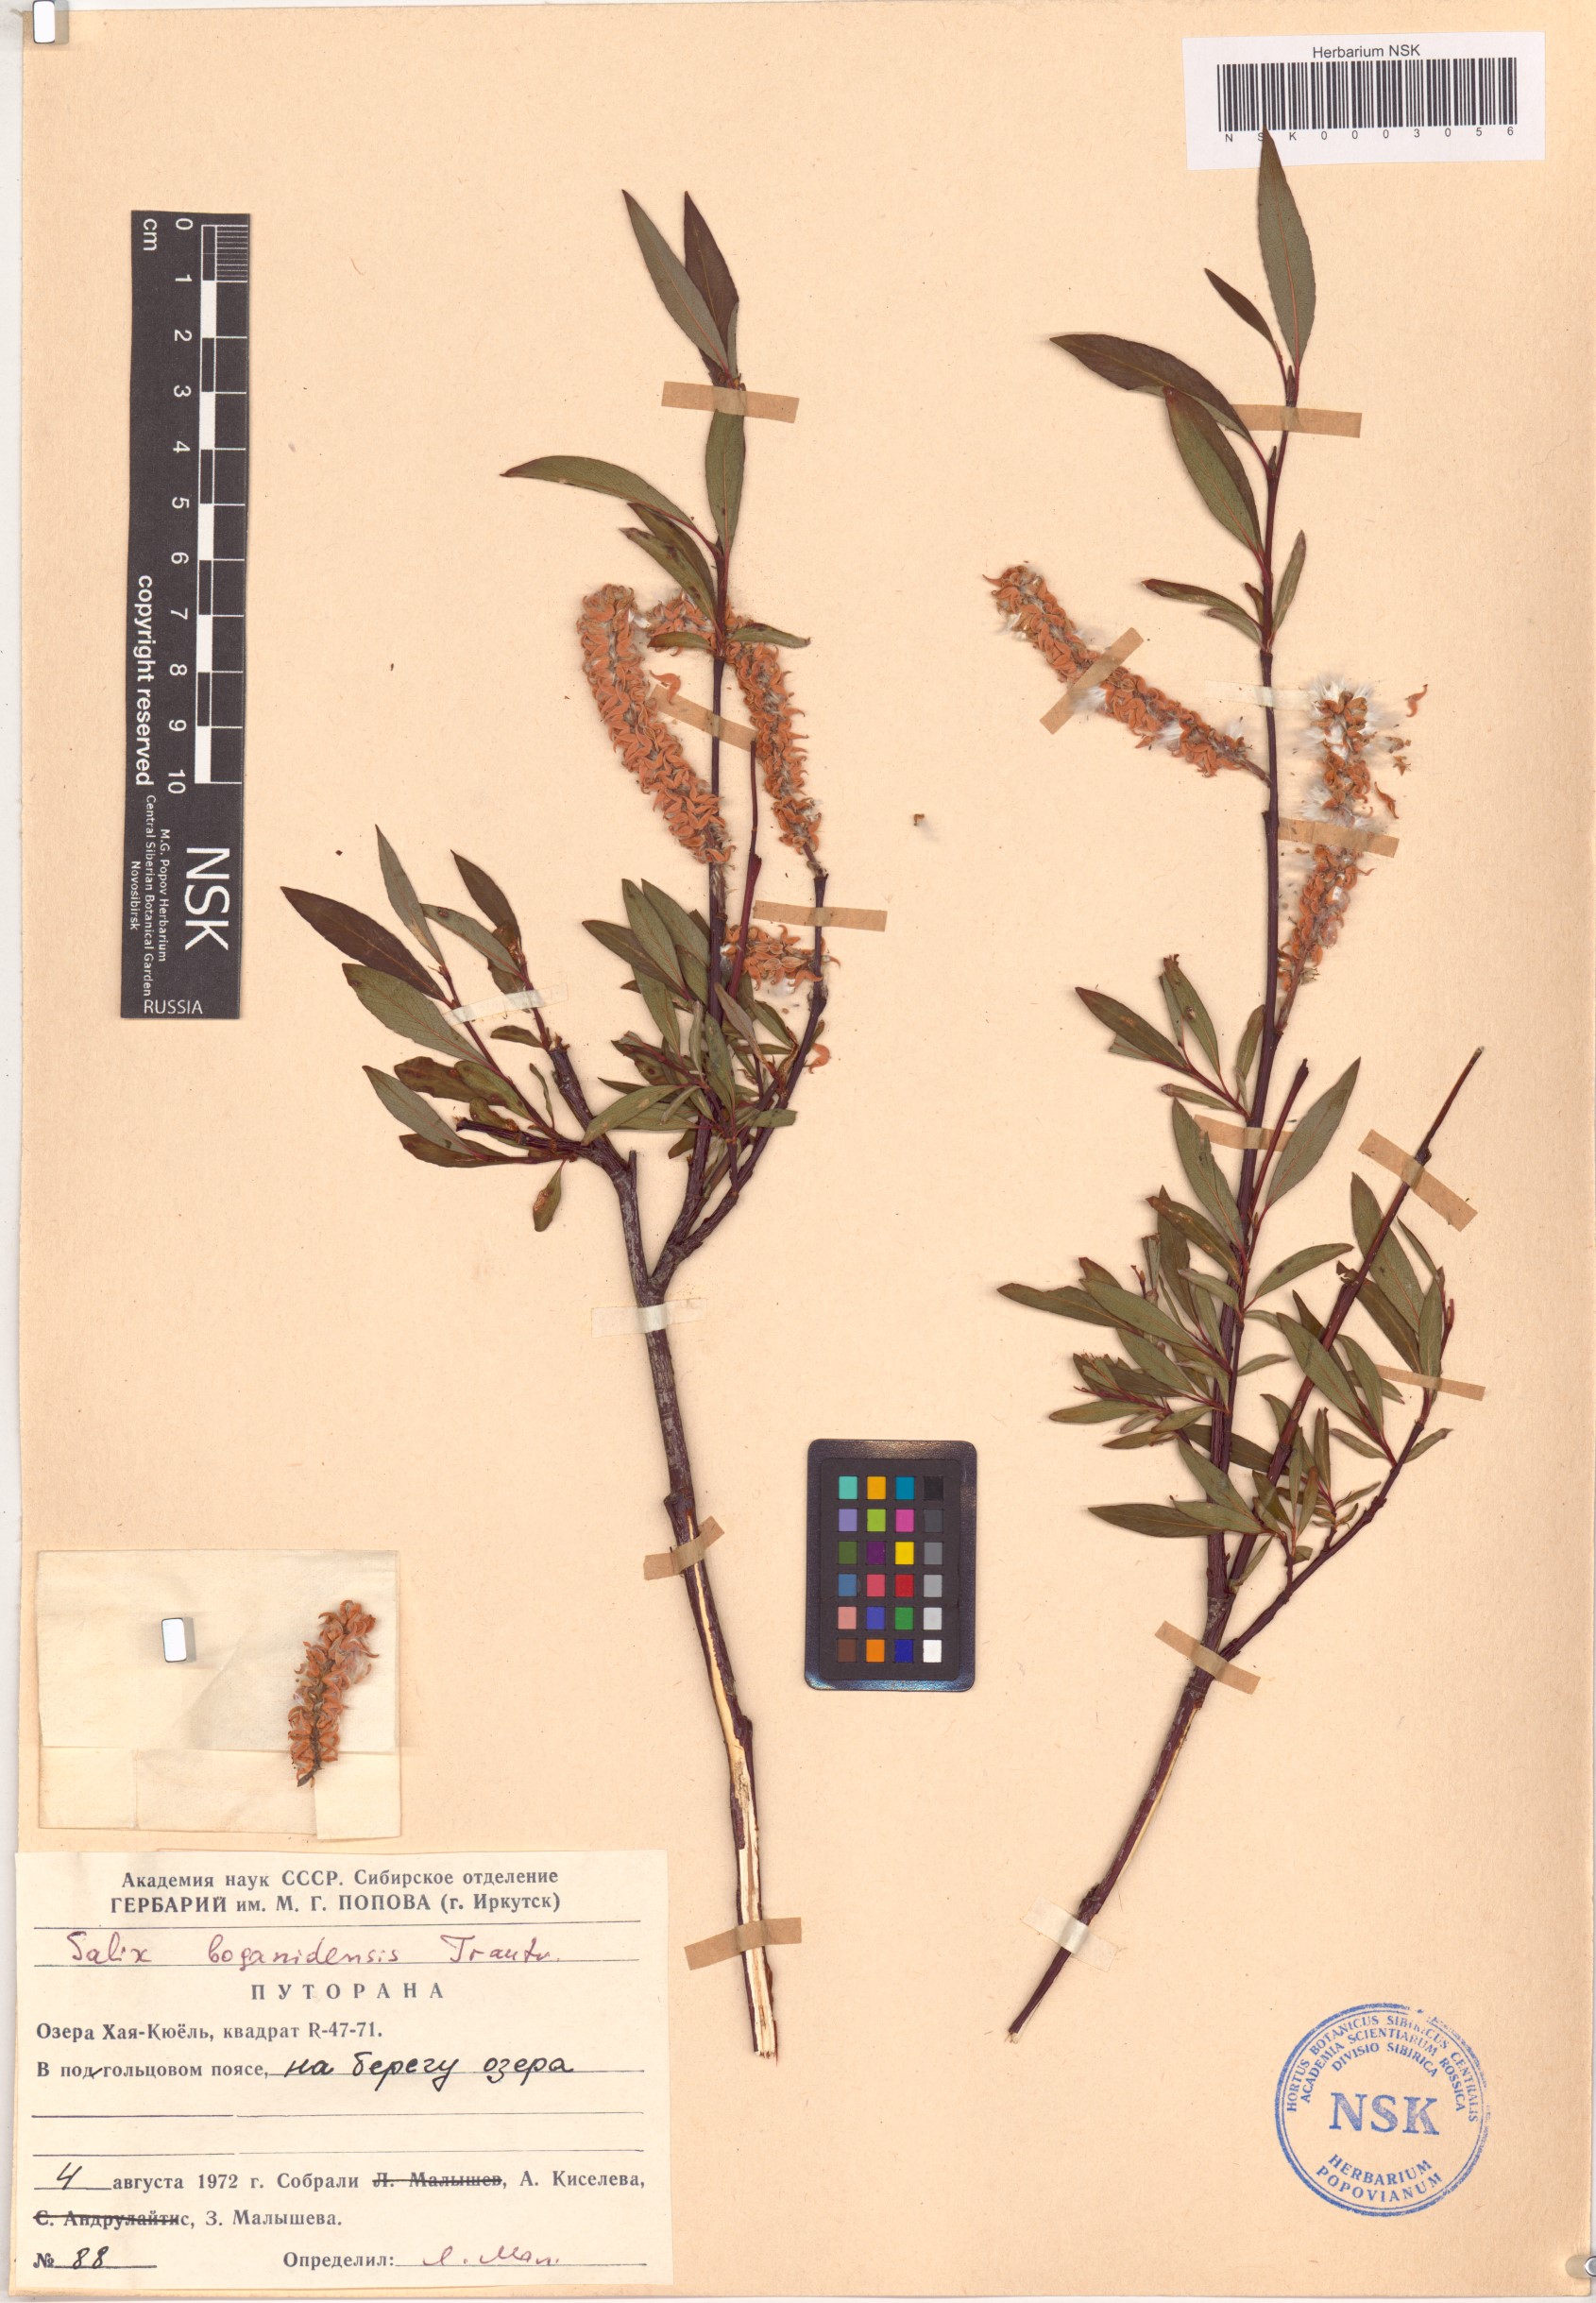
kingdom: Plantae
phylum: Tracheophyta
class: Magnoliopsida
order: Malpighiales
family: Salicaceae
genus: Salix
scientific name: Salix boganidensis
